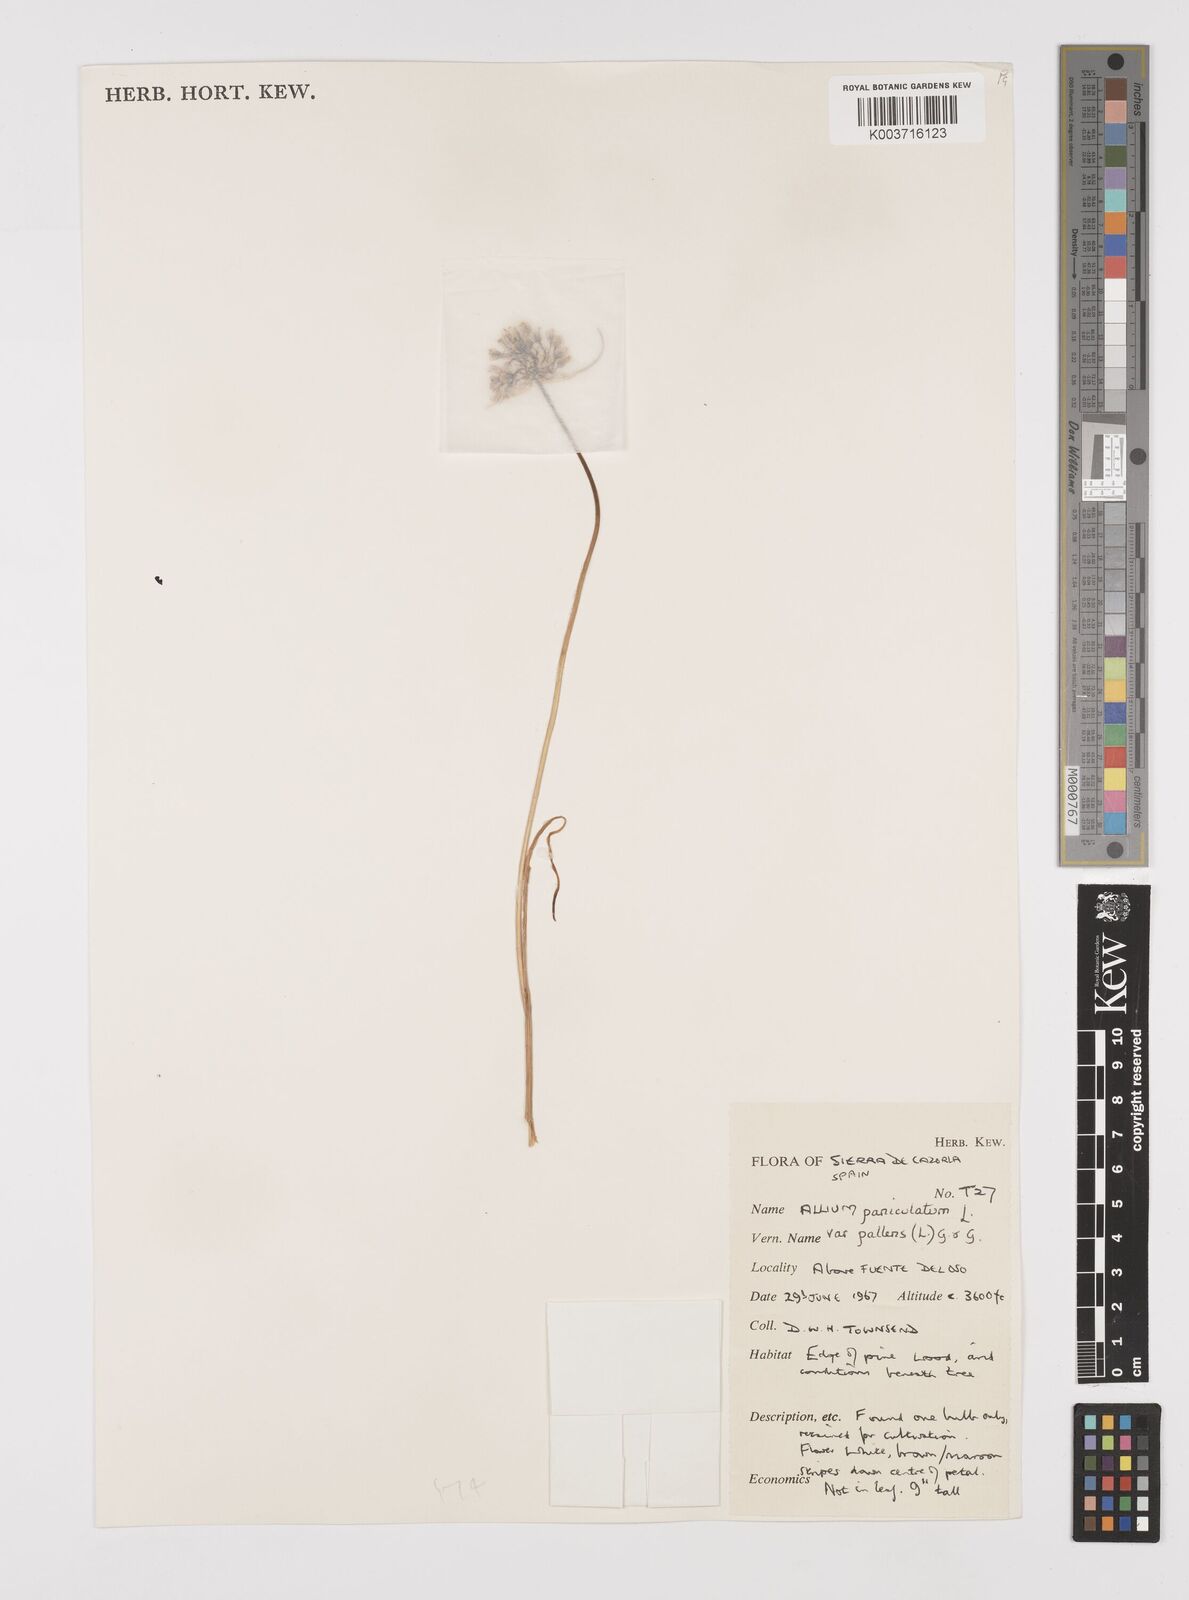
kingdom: Plantae
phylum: Tracheophyta
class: Liliopsida
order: Asparagales
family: Amaryllidaceae
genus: Allium
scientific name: Allium pallens
